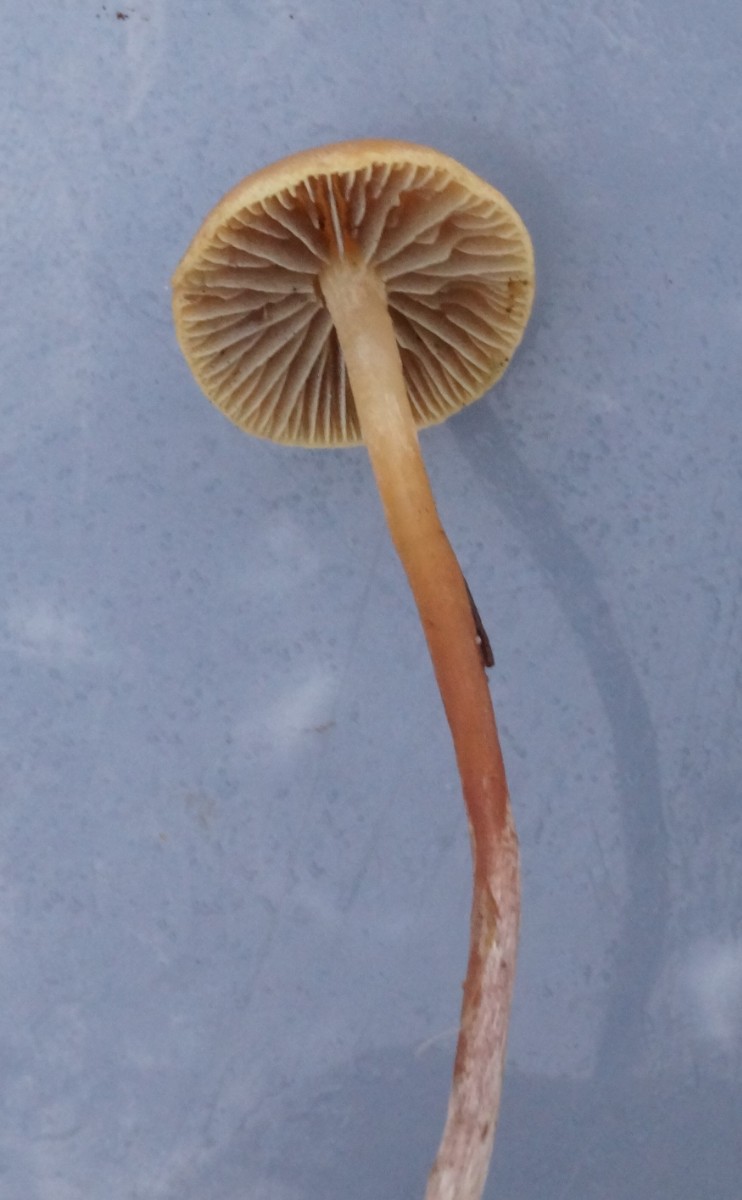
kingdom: Fungi
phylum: Basidiomycota
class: Agaricomycetes
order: Agaricales
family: Strophariaceae
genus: Bogbodia
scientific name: Bogbodia uda
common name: tørve-svovlhat
